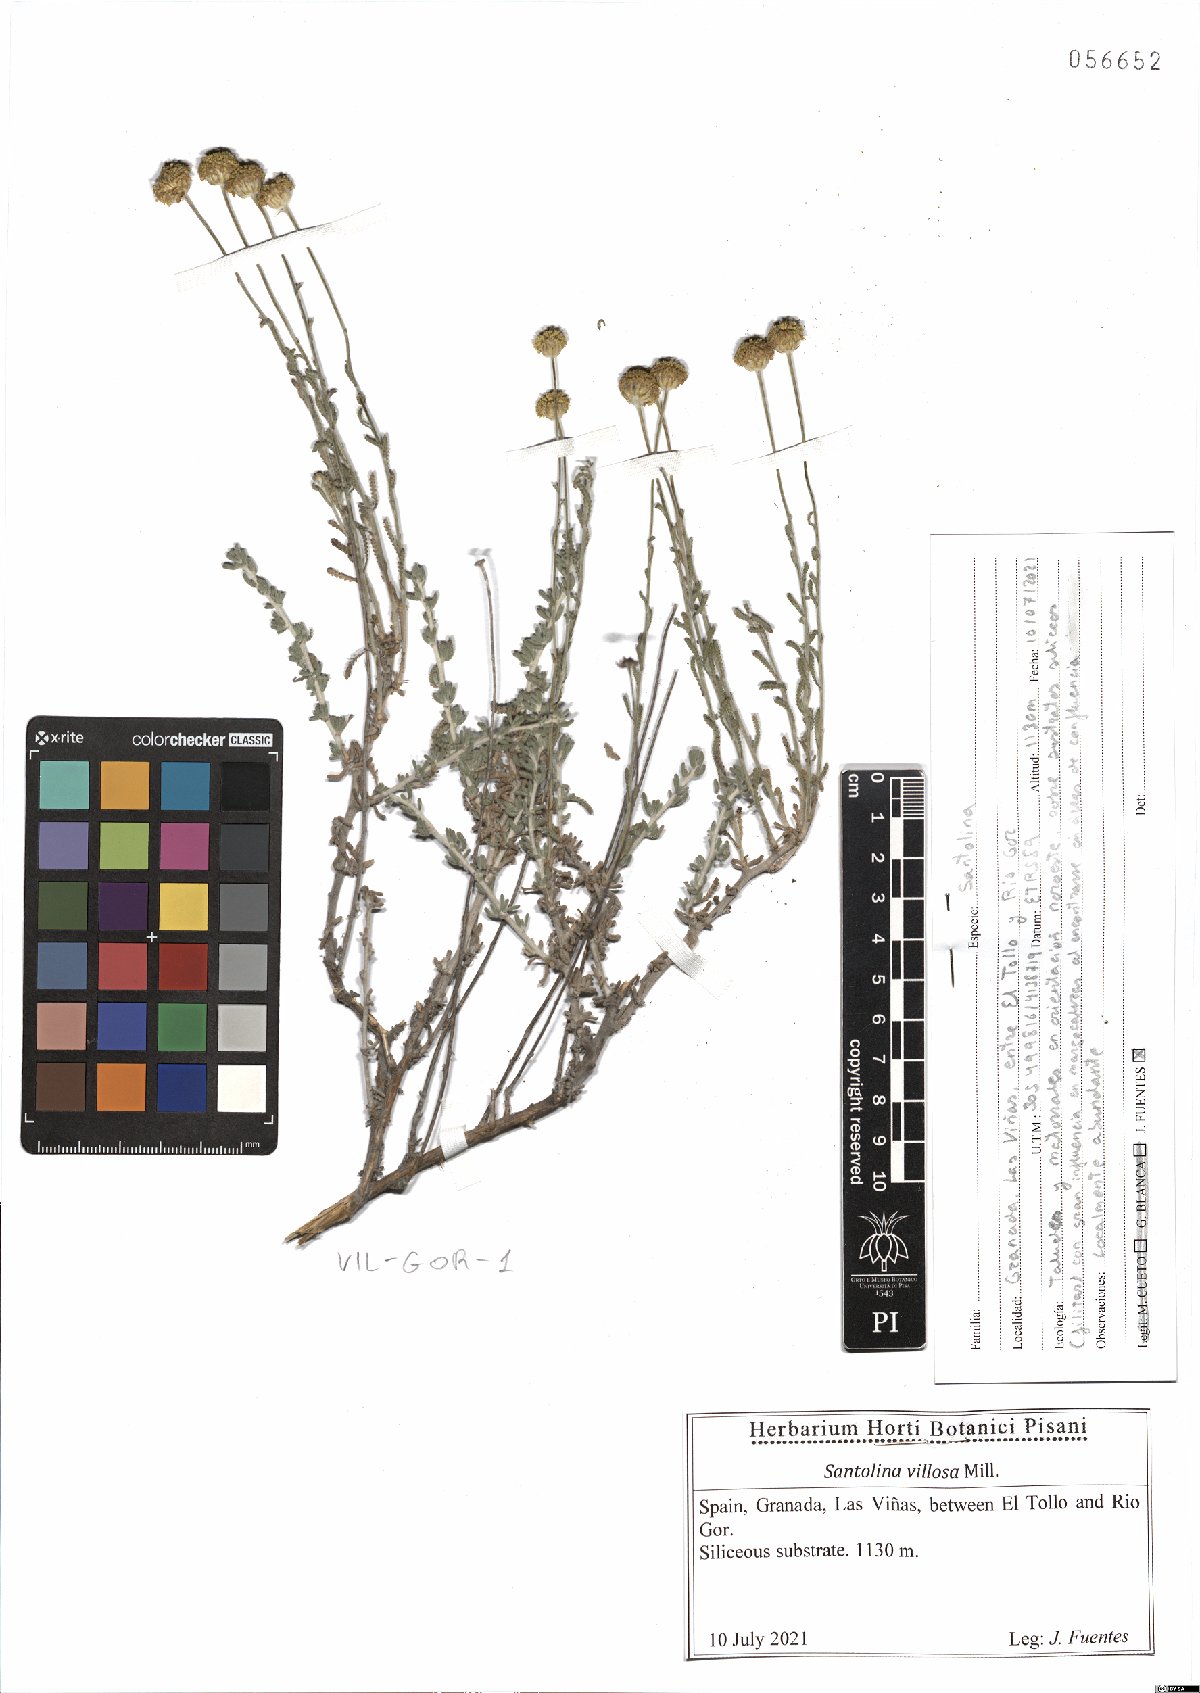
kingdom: Plantae
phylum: Tracheophyta
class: Magnoliopsida
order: Asterales
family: Asteraceae
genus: Santolina
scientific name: Santolina chamaecyparissus
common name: Lavender-cotton
